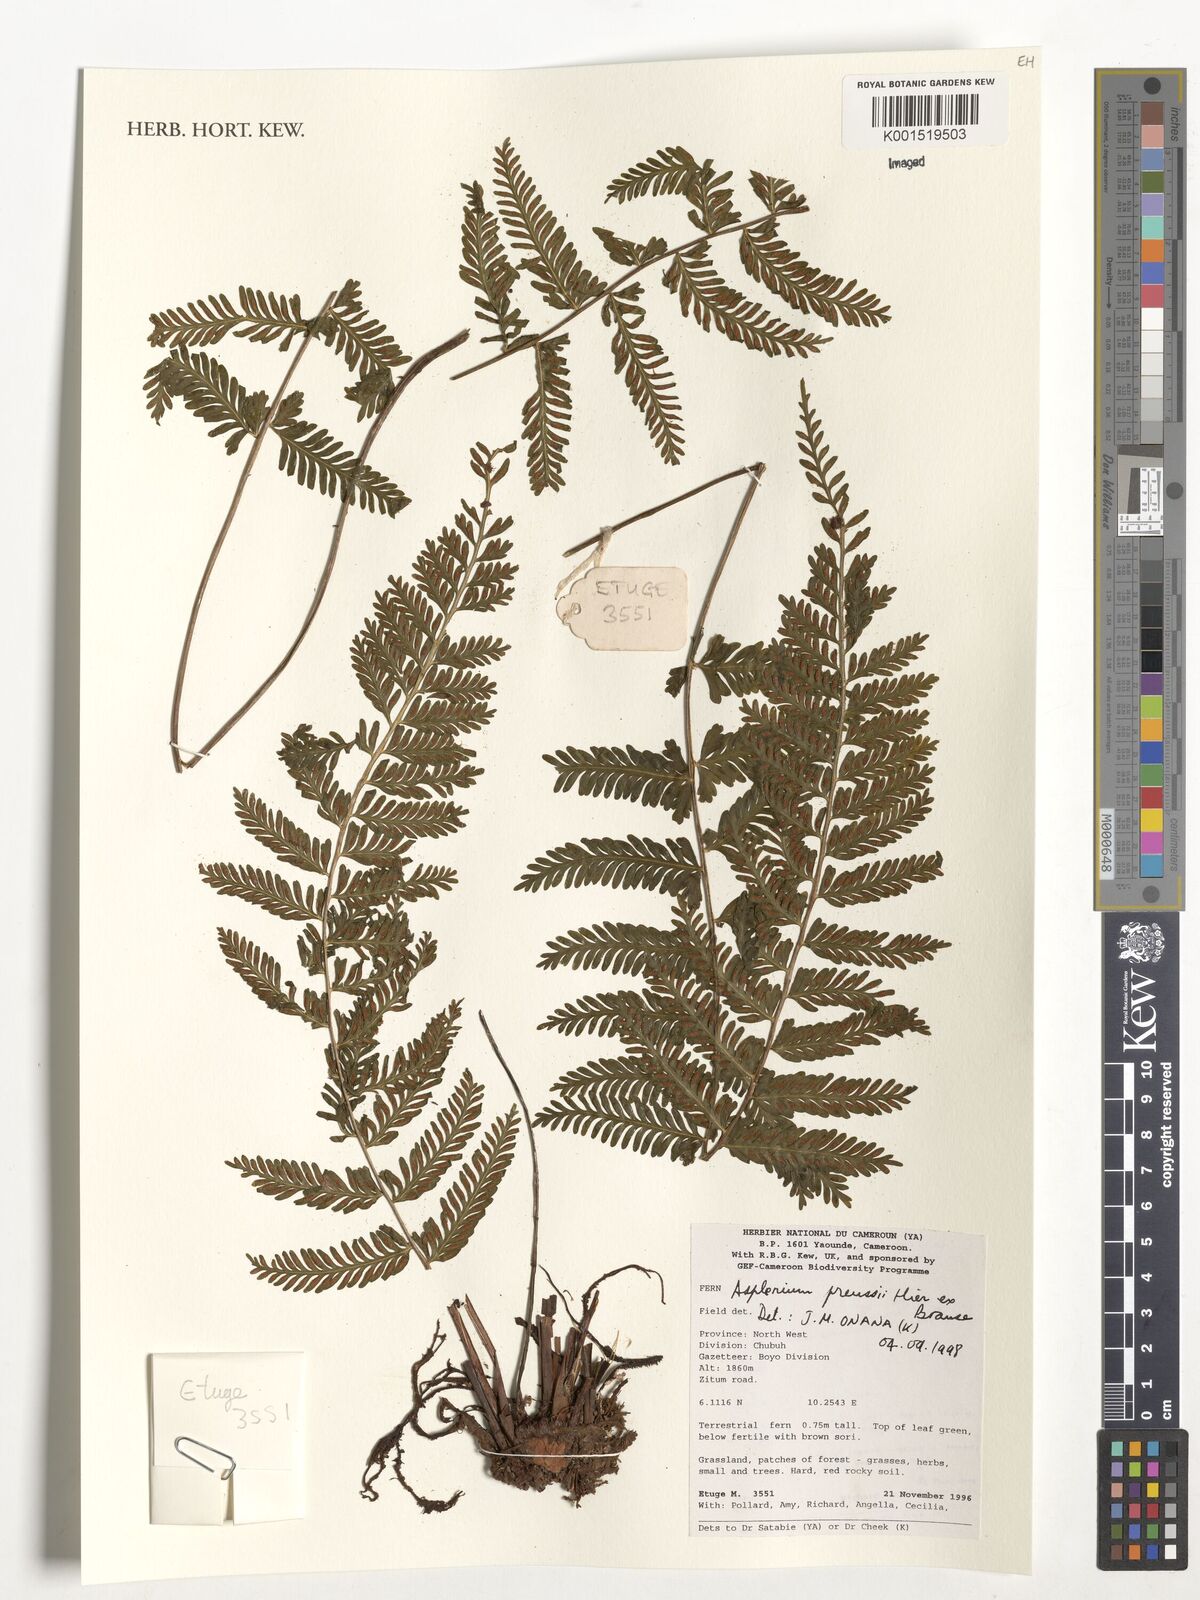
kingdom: Plantae
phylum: Tracheophyta
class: Polypodiopsida
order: Polypodiales
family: Aspleniaceae
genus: Asplenium
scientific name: Asplenium preussii
